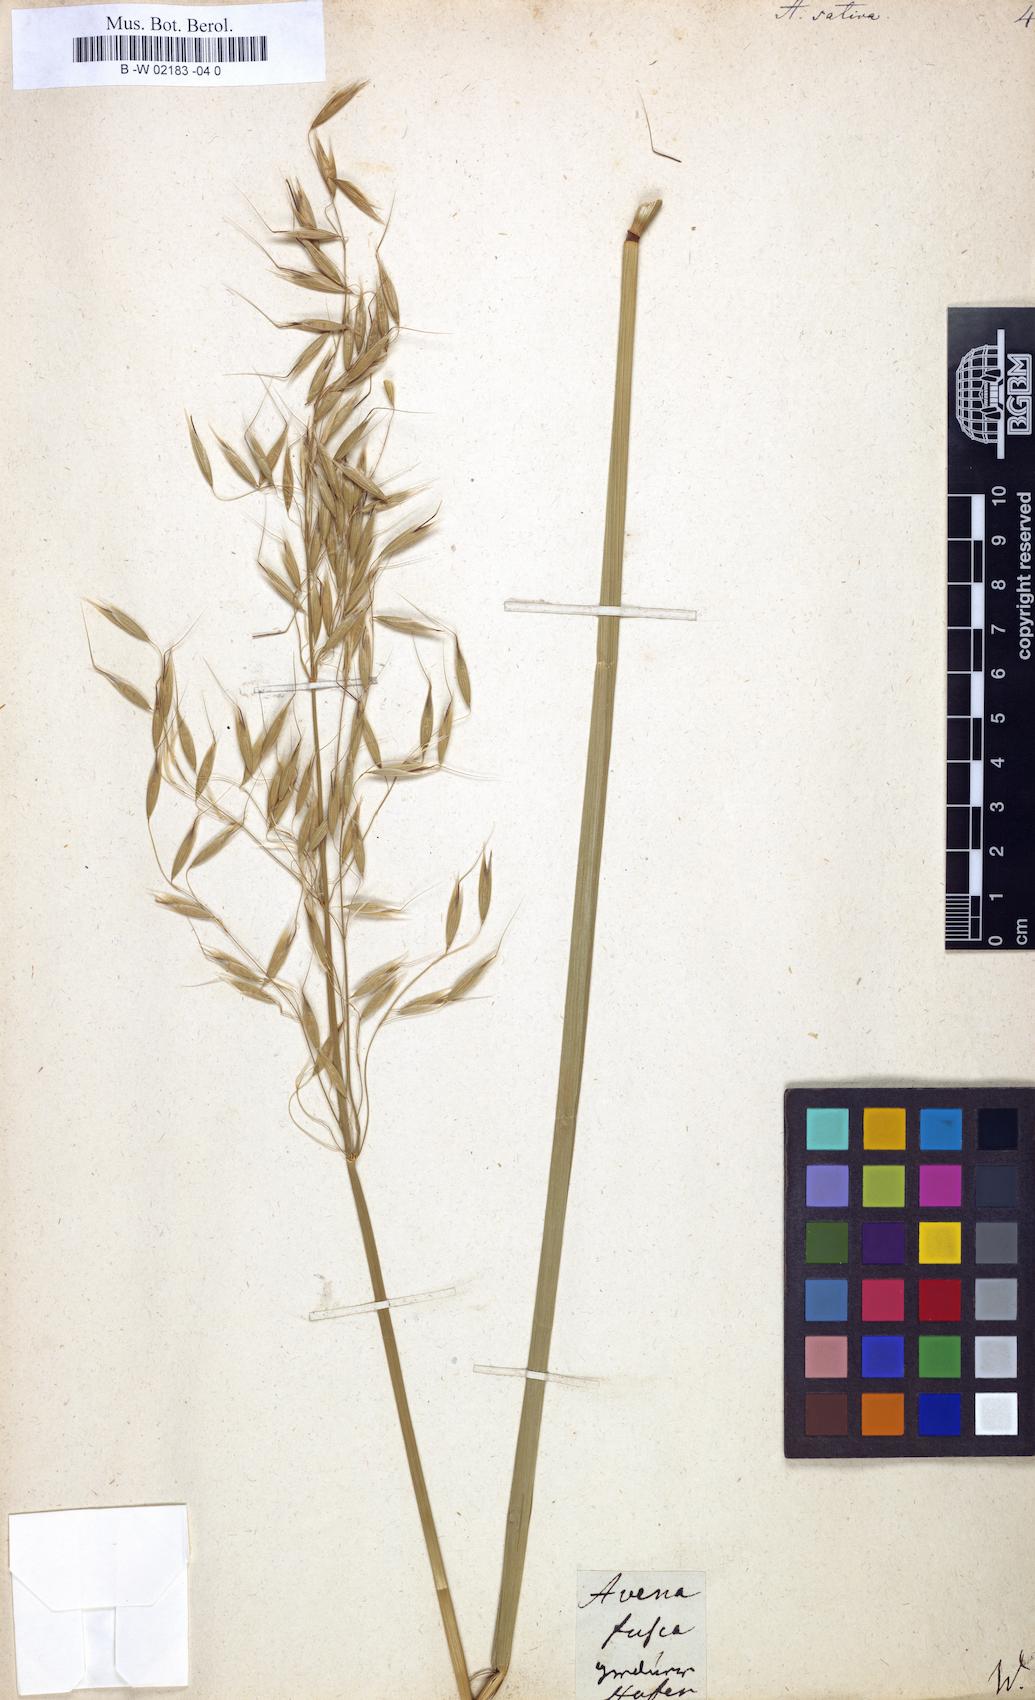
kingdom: Plantae
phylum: Tracheophyta
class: Liliopsida
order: Poales
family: Poaceae
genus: Avena
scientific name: Avena sativa
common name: Oat
